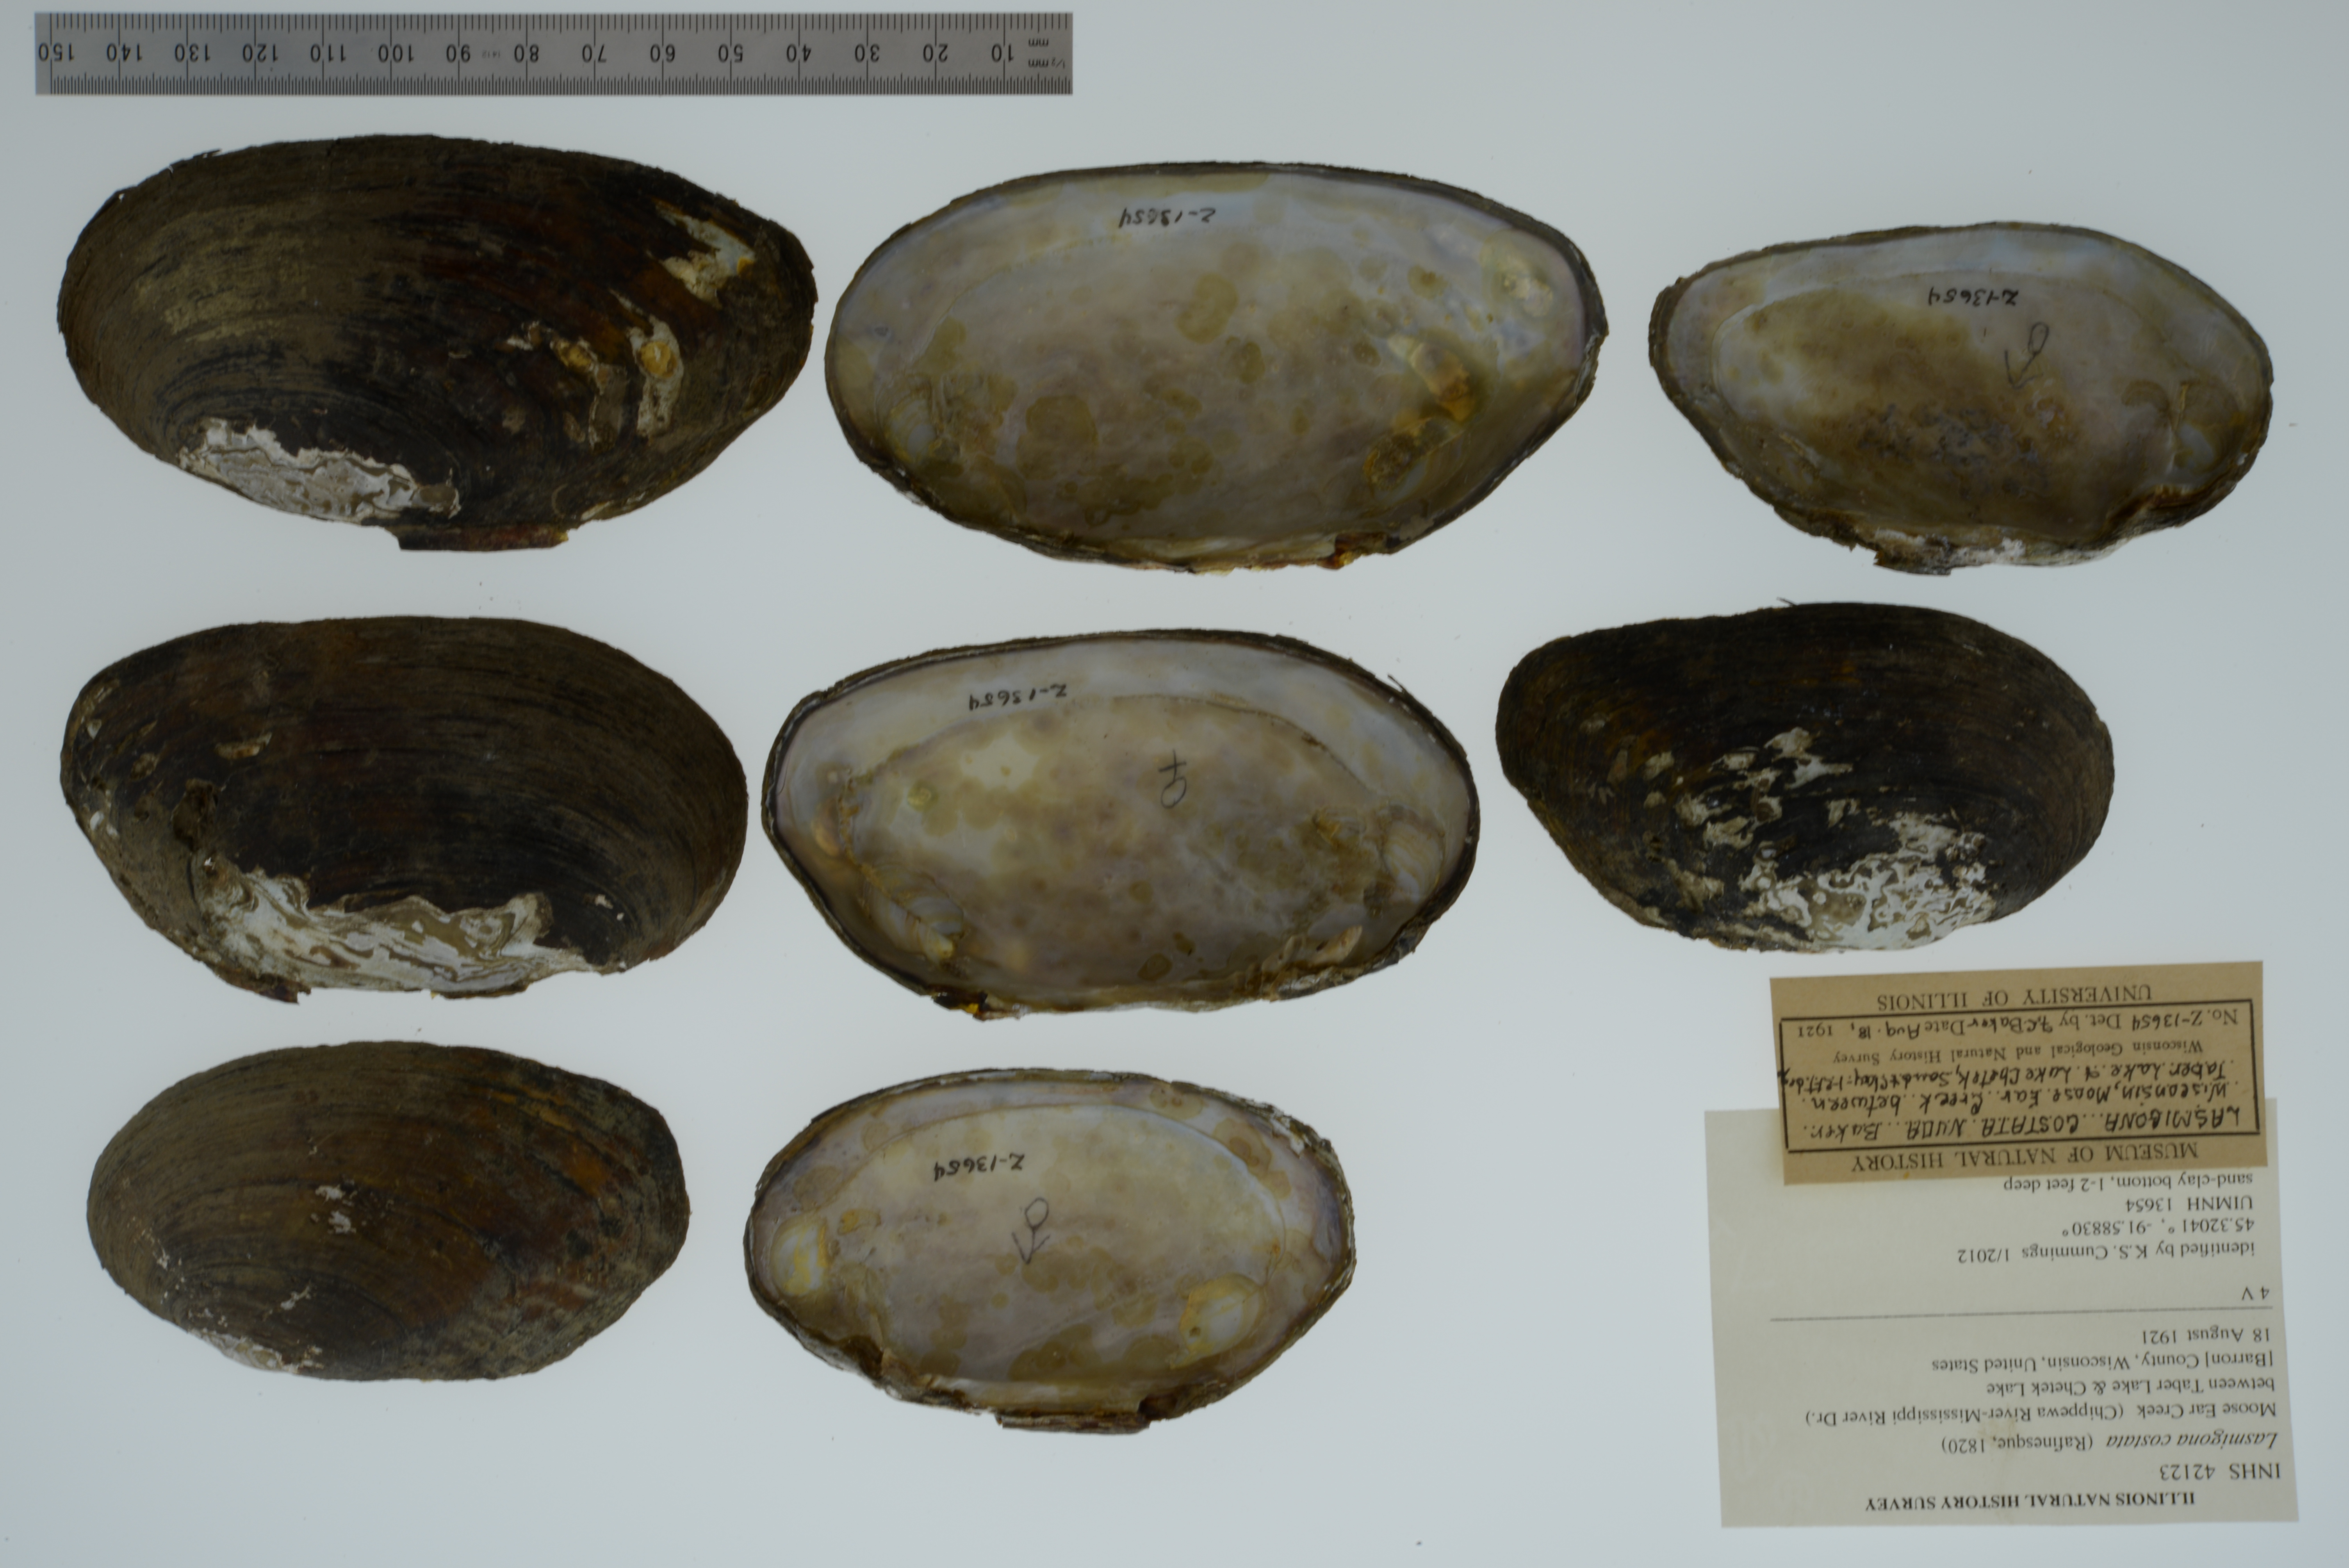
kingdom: Animalia
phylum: Mollusca
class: Bivalvia
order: Unionida
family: Unionidae
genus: Lasmigona
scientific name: Lasmigona costata
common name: Flutedshell
